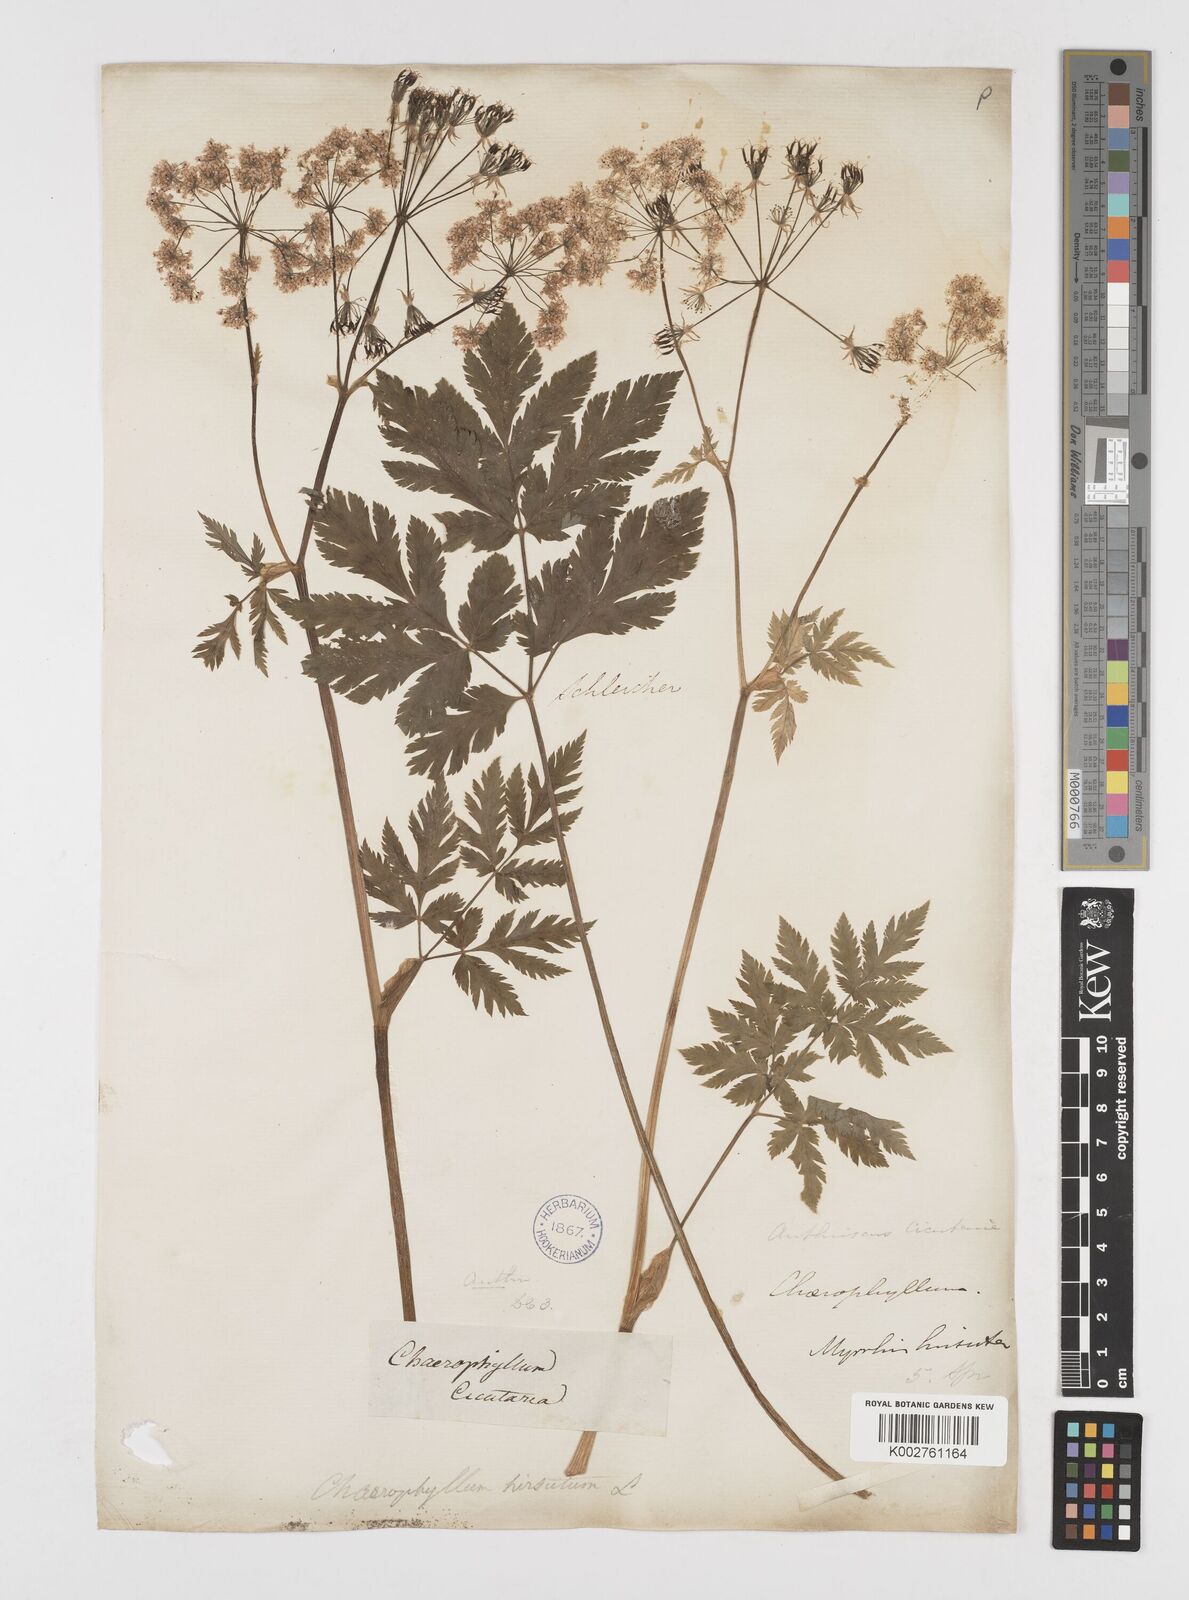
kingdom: Plantae
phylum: Tracheophyta
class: Magnoliopsida
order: Apiales
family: Apiaceae
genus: Chaerophyllum
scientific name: Chaerophyllum hirsutum
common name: Hairy chervil
